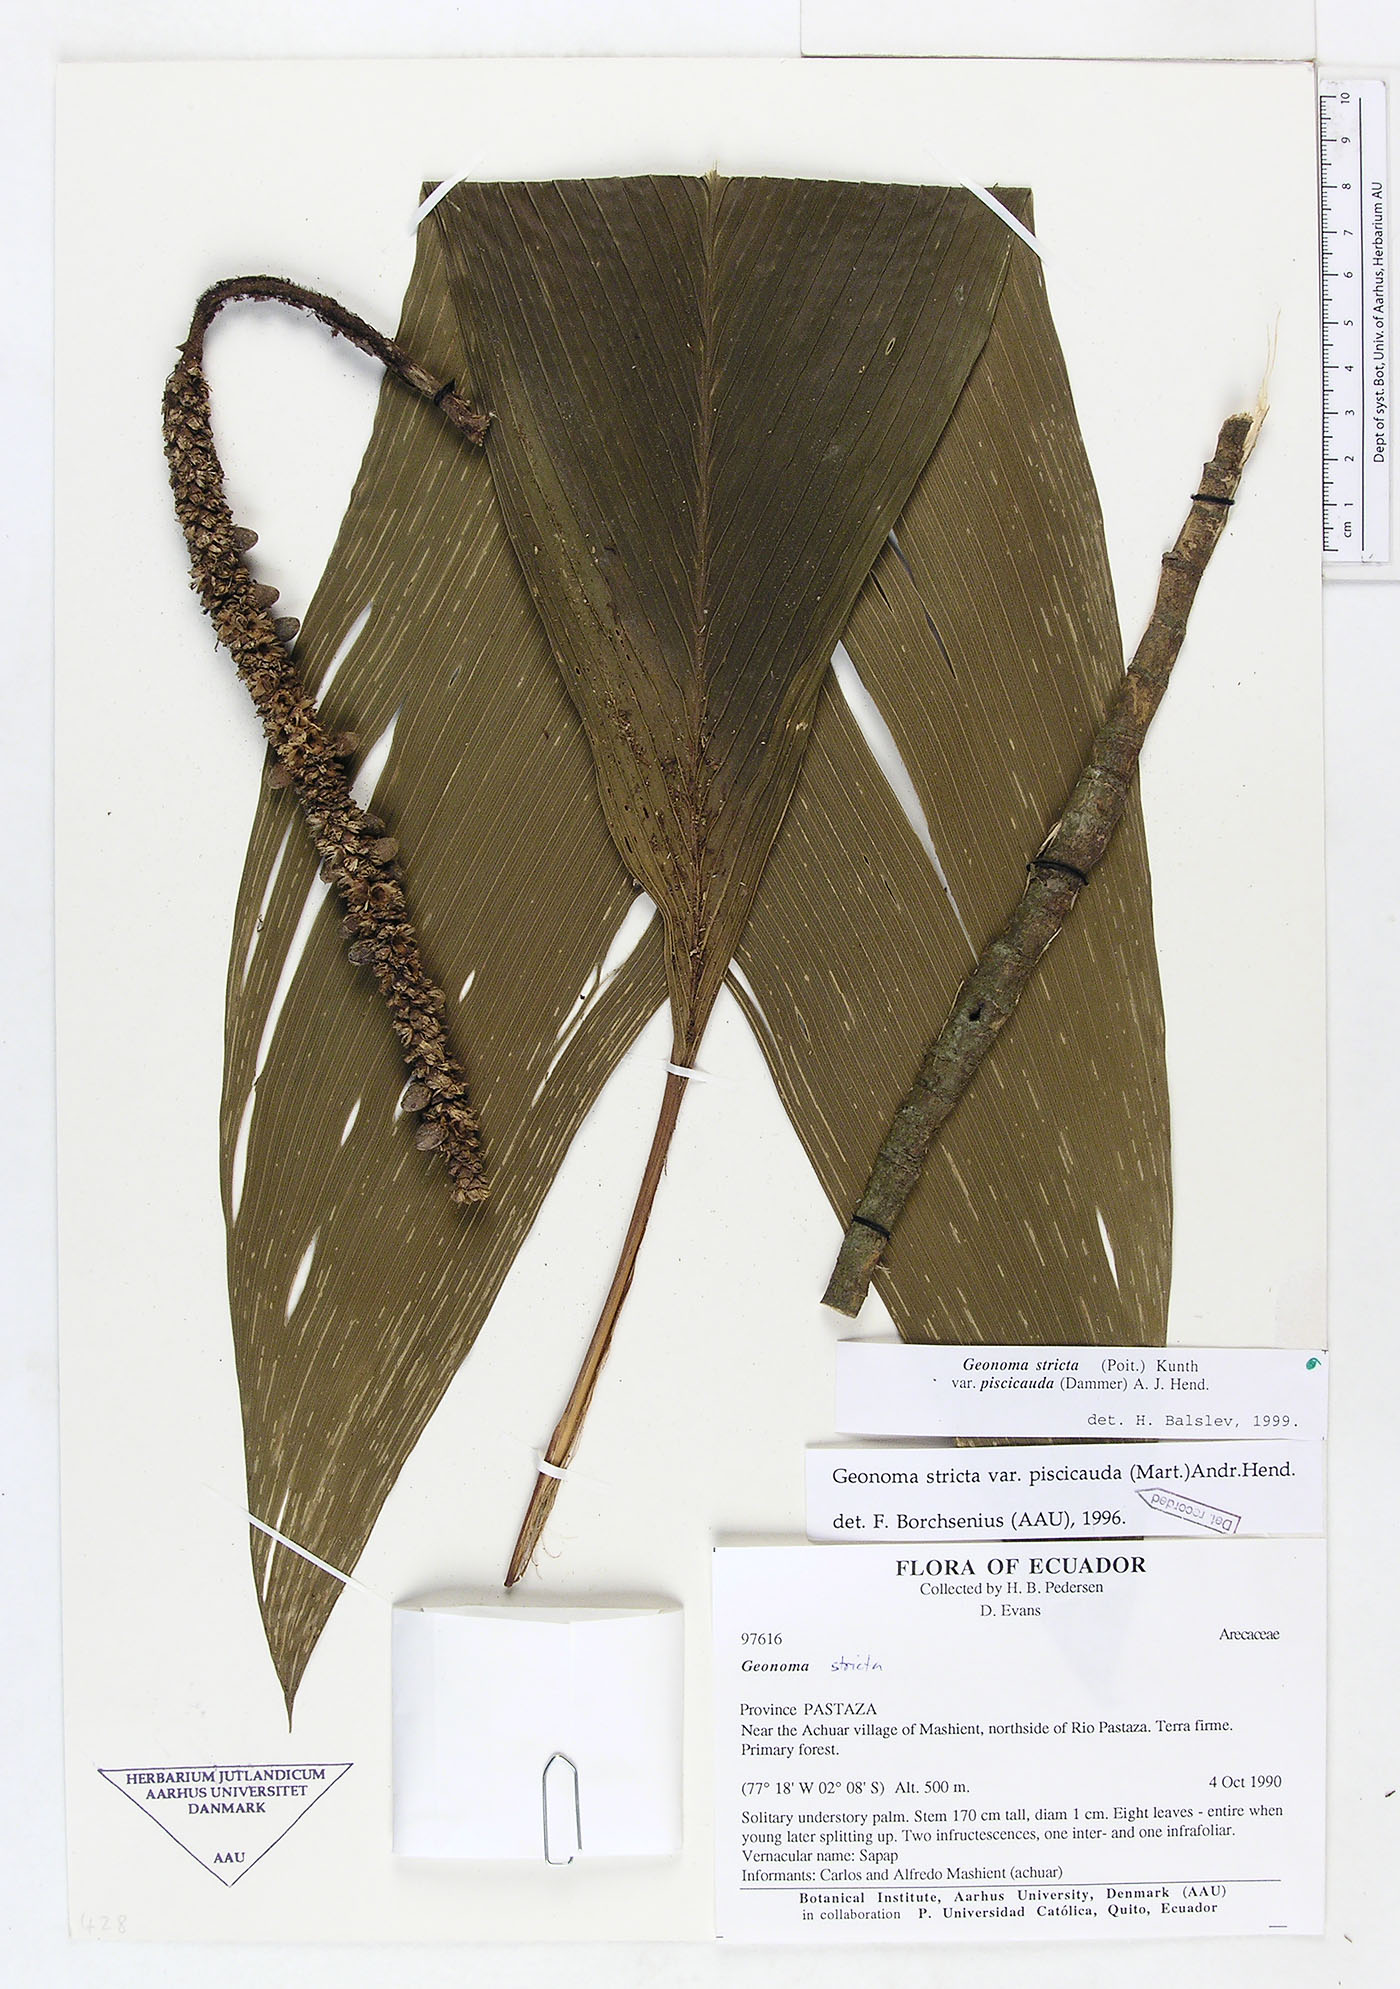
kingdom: Plantae
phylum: Tracheophyta
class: Liliopsida
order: Arecales
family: Arecaceae
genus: Geonoma
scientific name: Geonoma stricta
